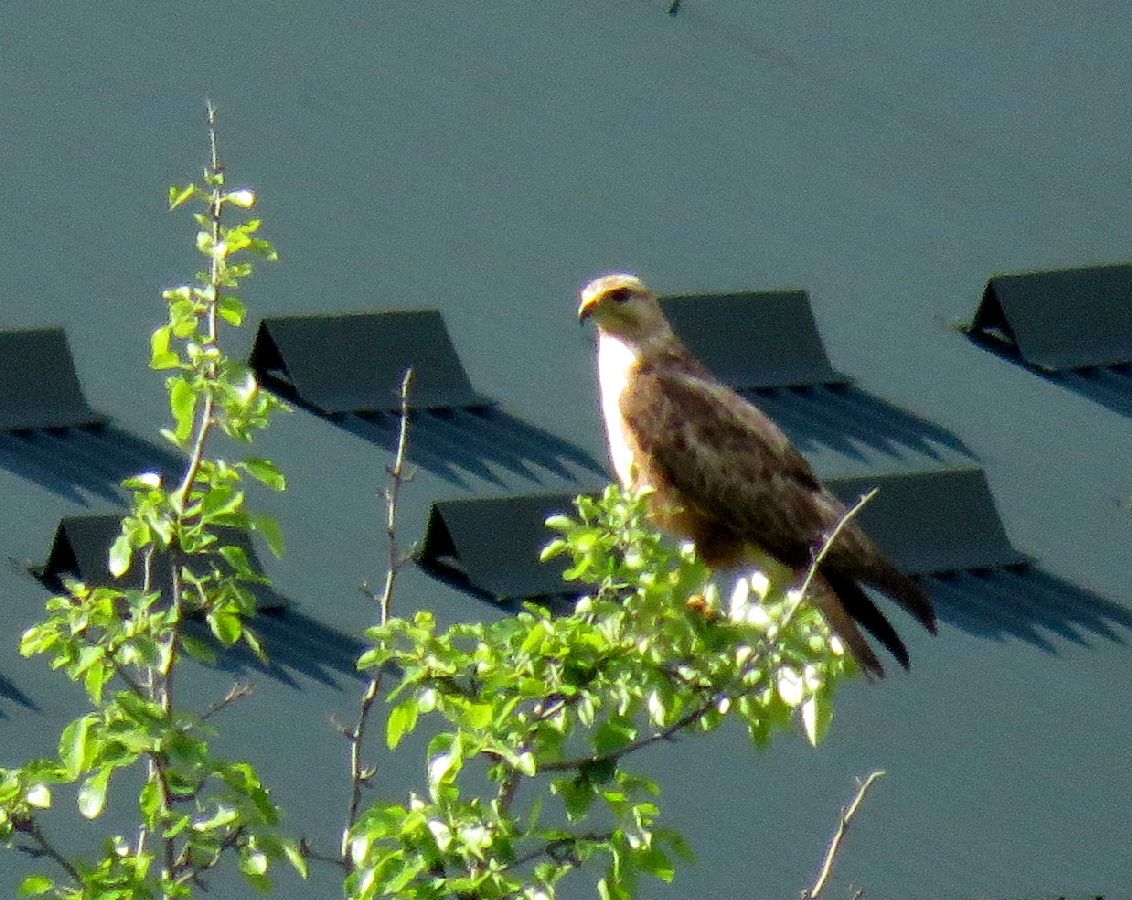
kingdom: Animalia
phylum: Chordata
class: Aves
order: Accipitriformes
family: Accipitridae
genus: Buteo
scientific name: Buteo buteo
